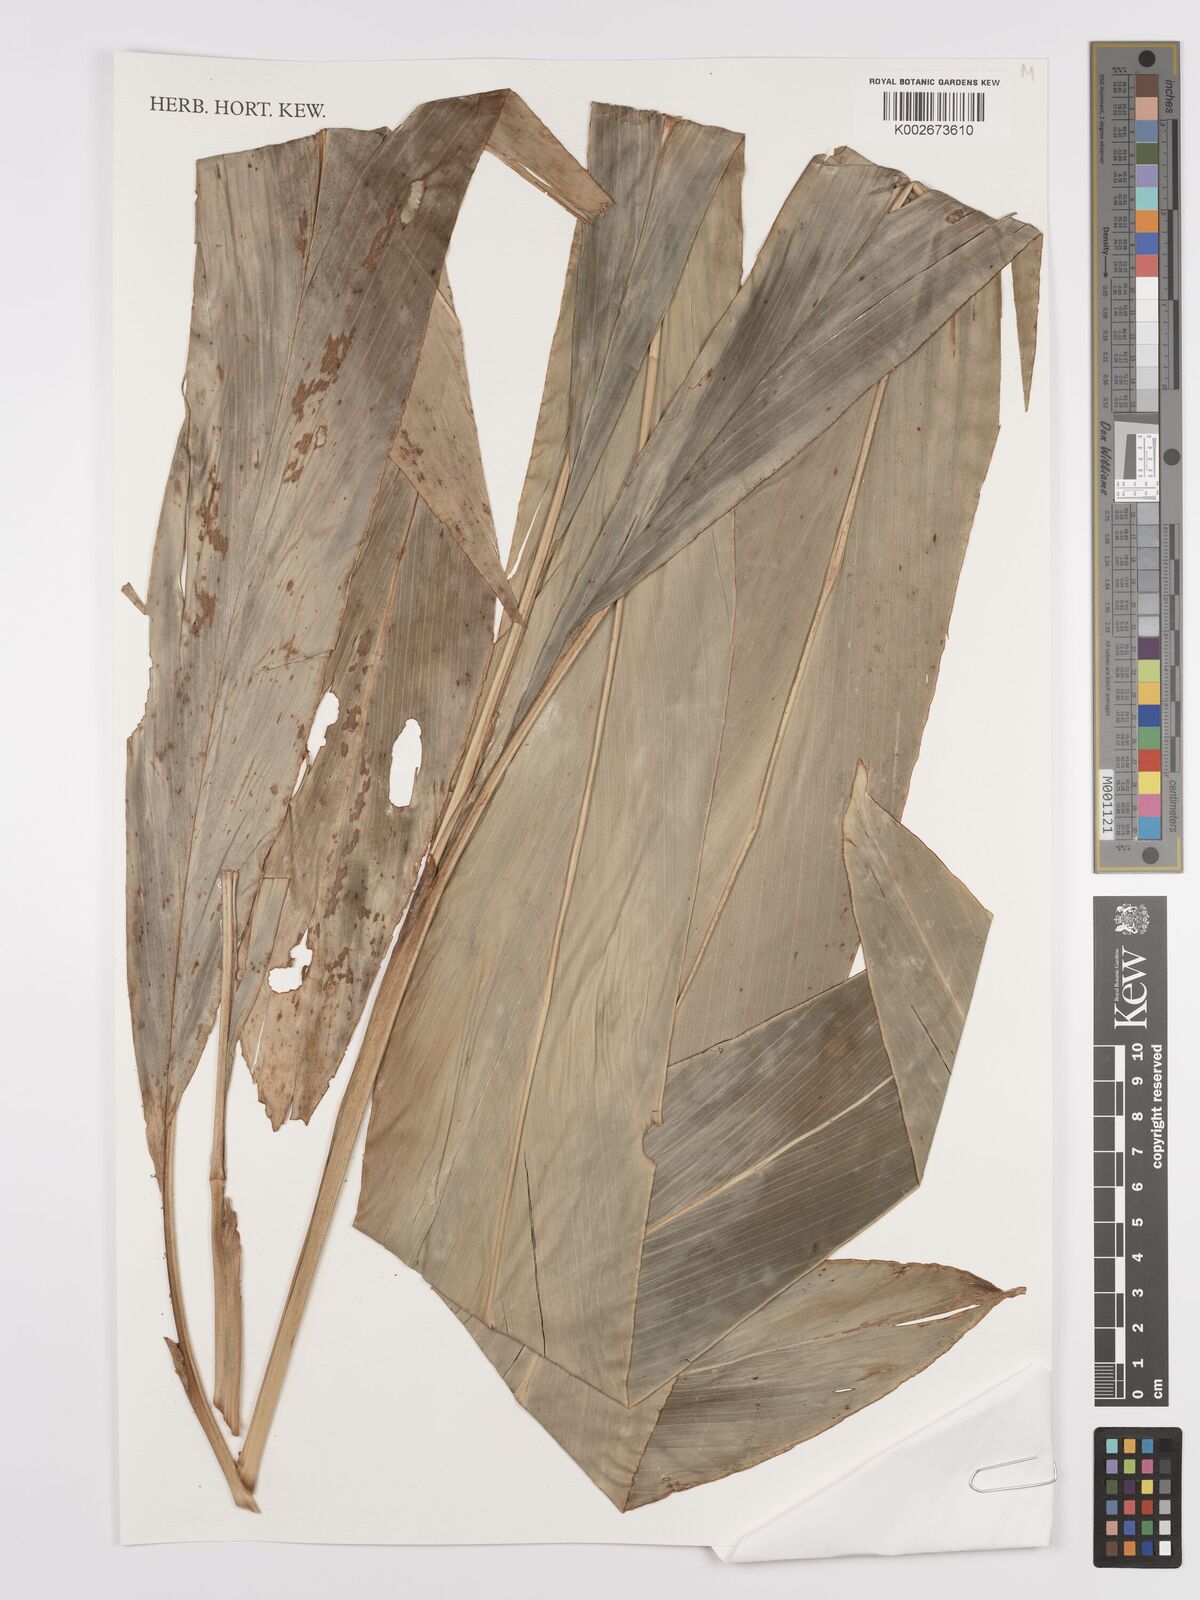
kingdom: Plantae
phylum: Tracheophyta
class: Liliopsida
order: Zingiberales
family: Zingiberaceae
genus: Amomum
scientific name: Amomum
